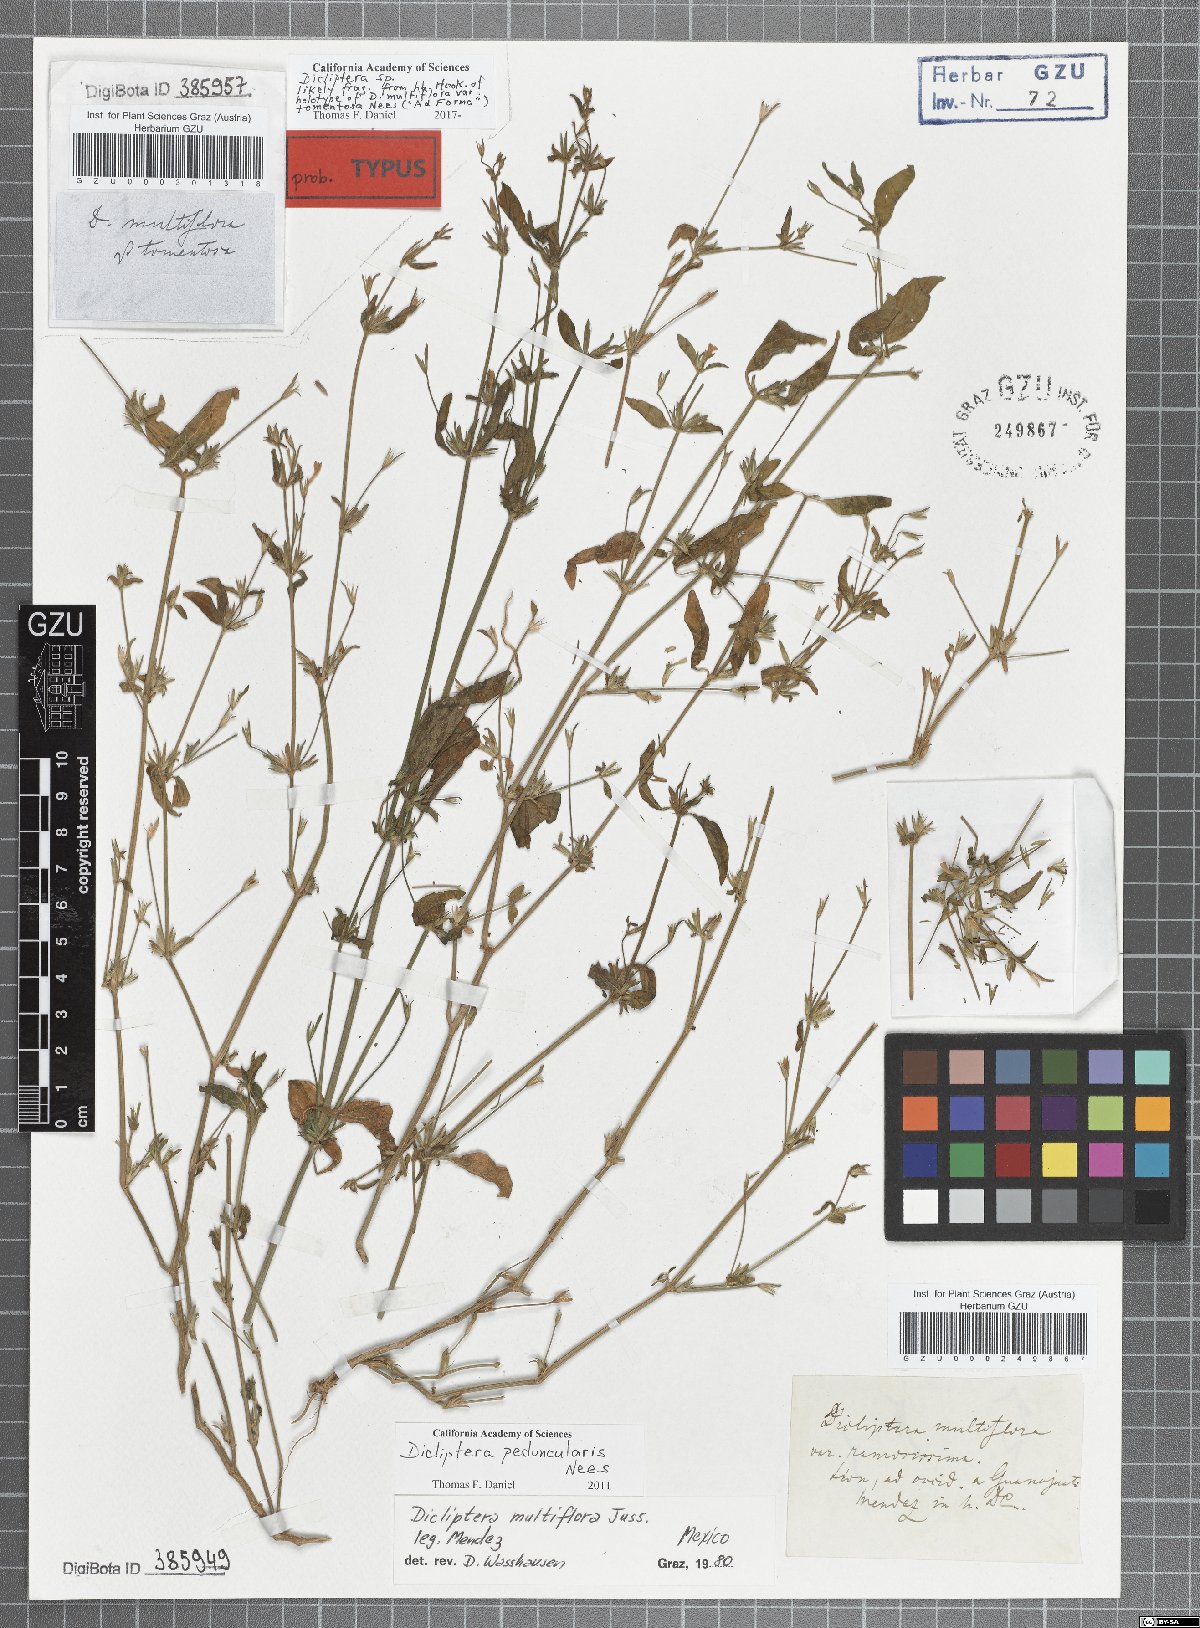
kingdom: Plantae
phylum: Tracheophyta
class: Magnoliopsida
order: Lamiales
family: Acanthaceae
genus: Dicliptera
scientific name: Dicliptera peduncularis
